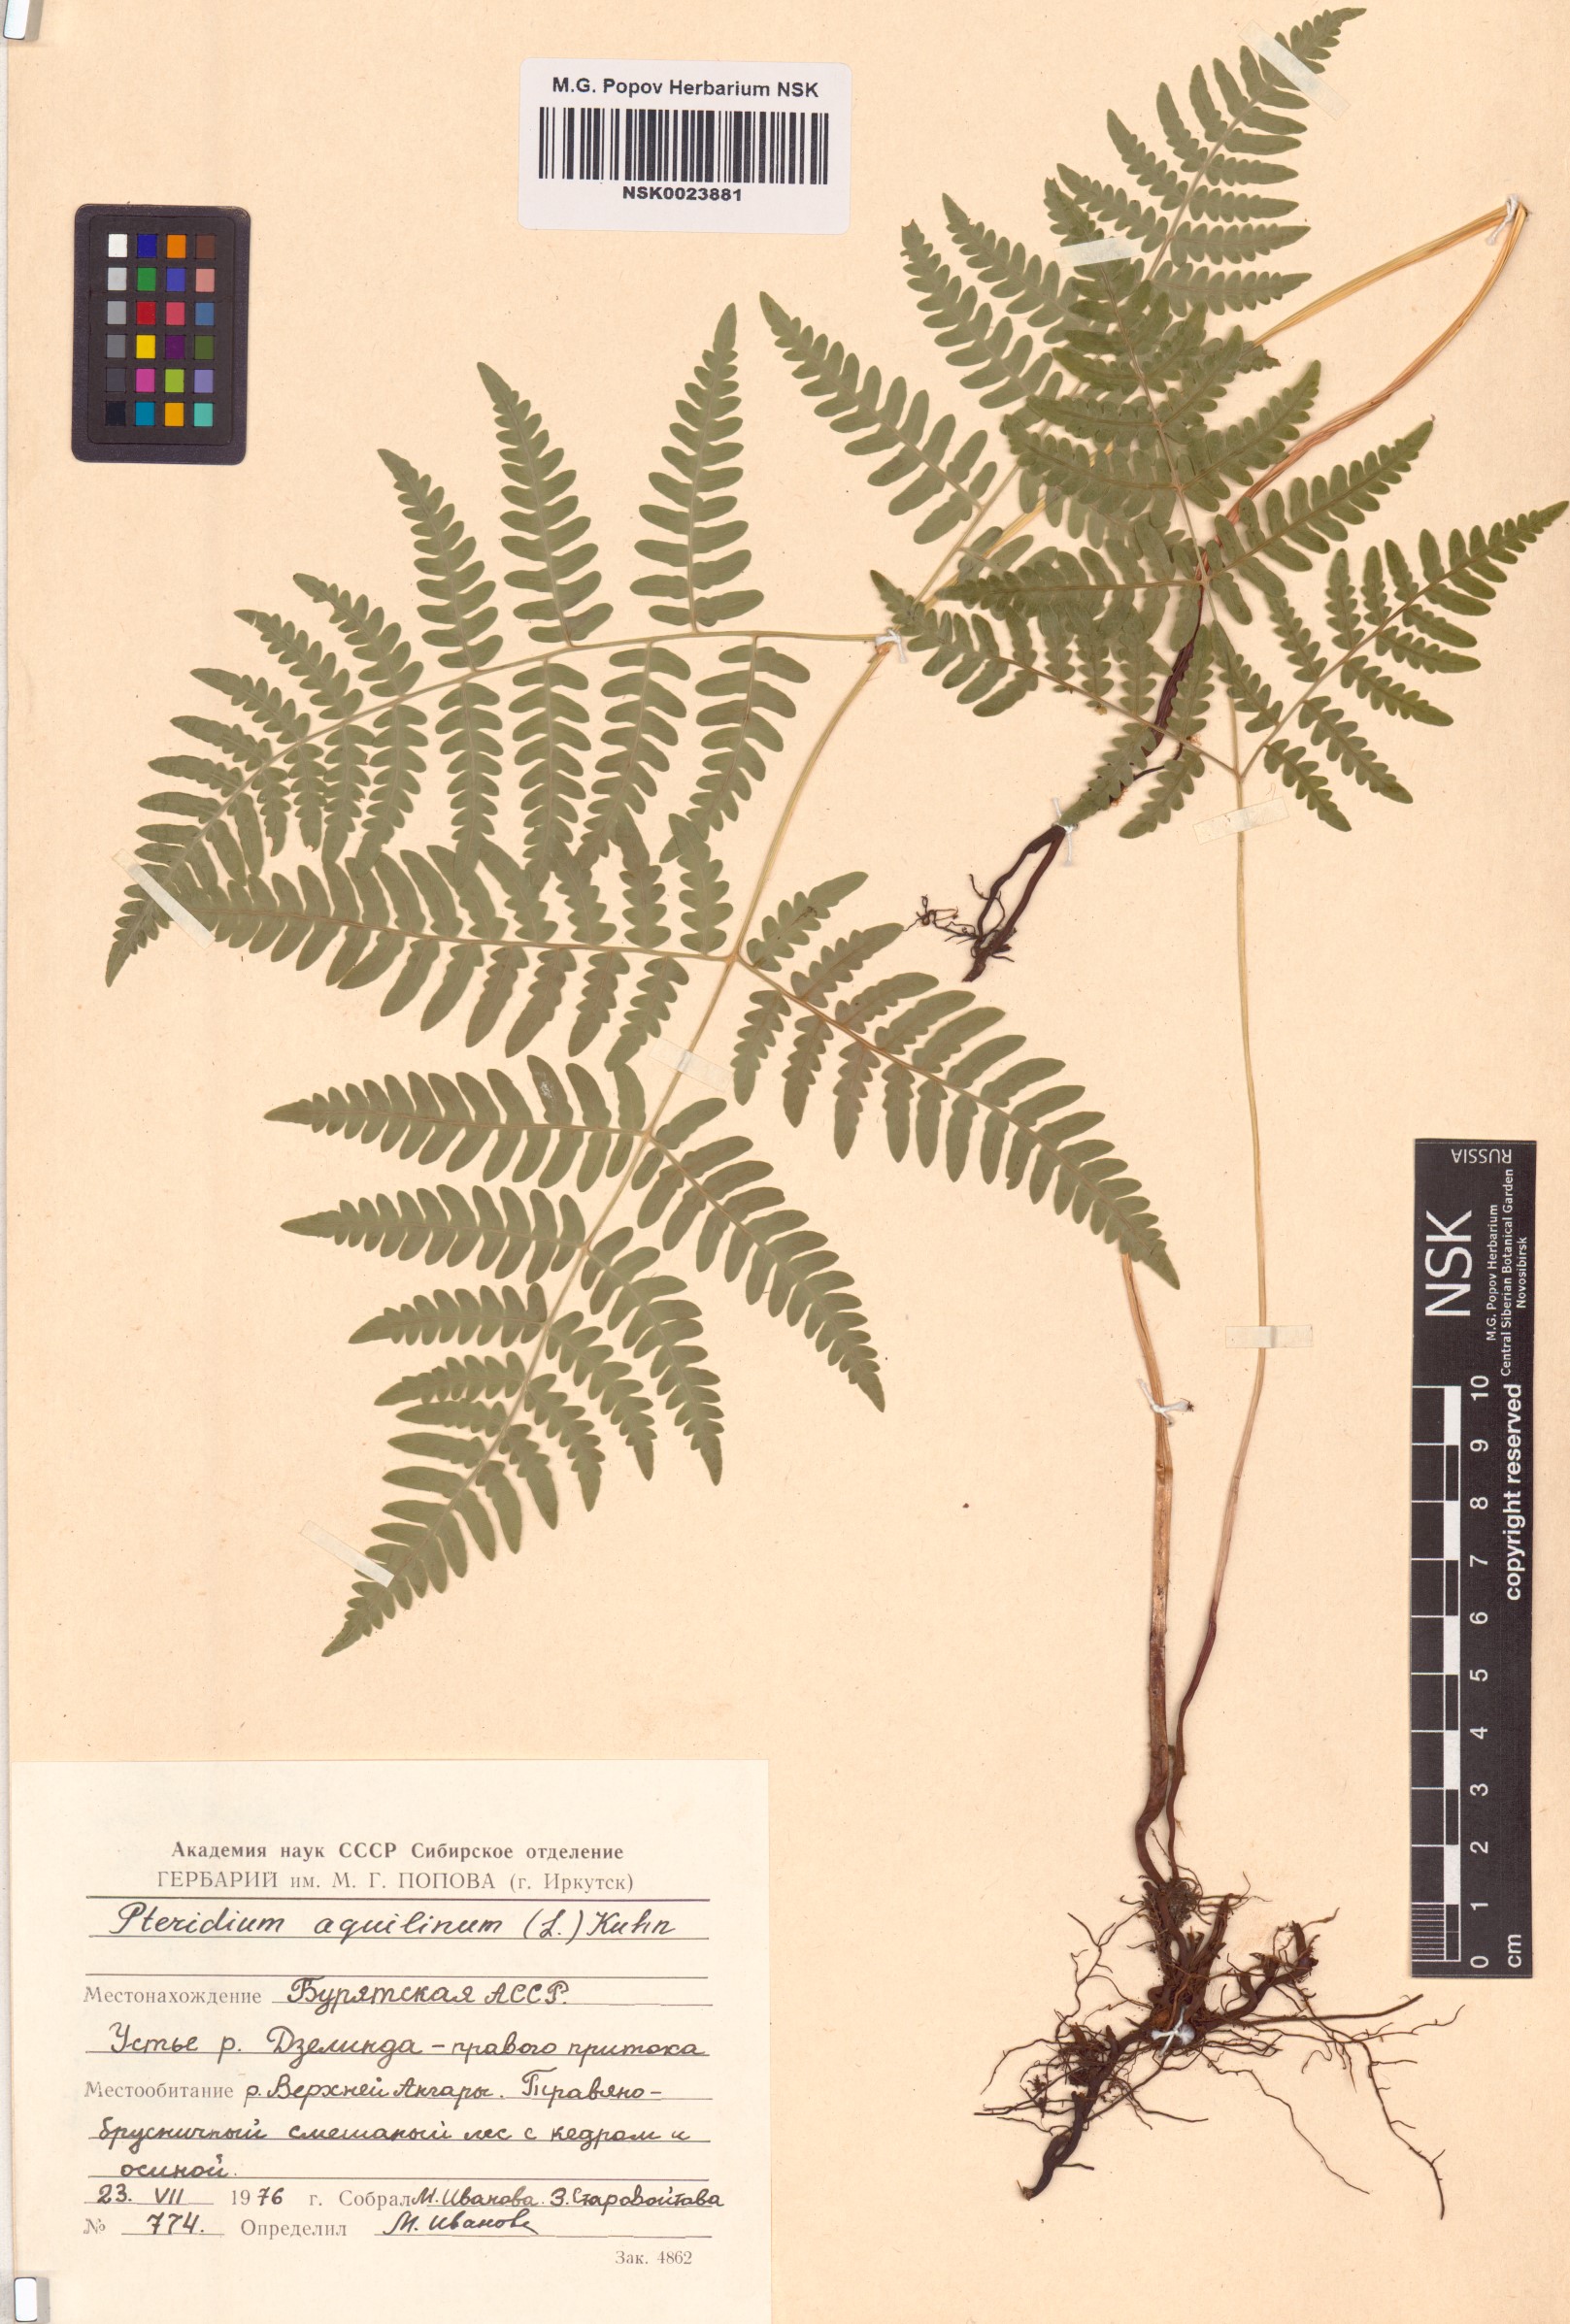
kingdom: Plantae
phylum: Tracheophyta
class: Polypodiopsida
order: Polypodiales
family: Dennstaedtiaceae
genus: Pteridium
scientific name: Pteridium aquilinum
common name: Bracken
